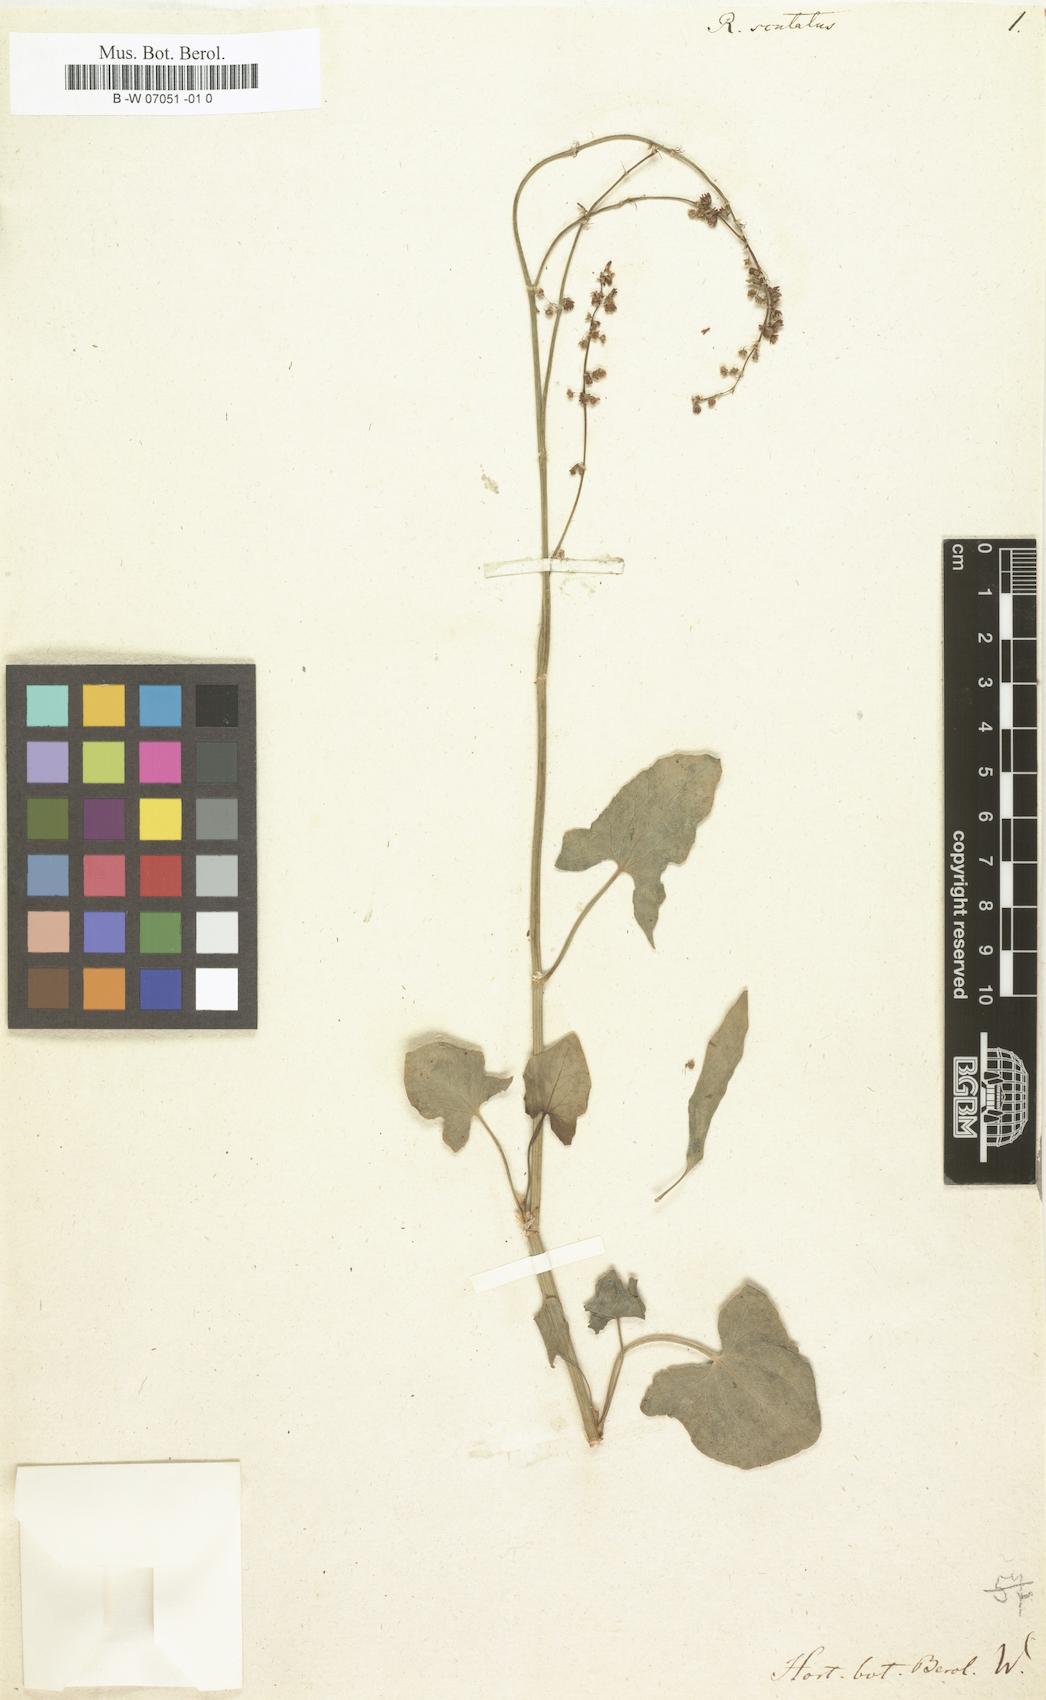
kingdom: Plantae
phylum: Tracheophyta
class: Magnoliopsida
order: Caryophyllales
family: Polygonaceae
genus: Rumex
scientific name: Rumex scutatus
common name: French sorrel
